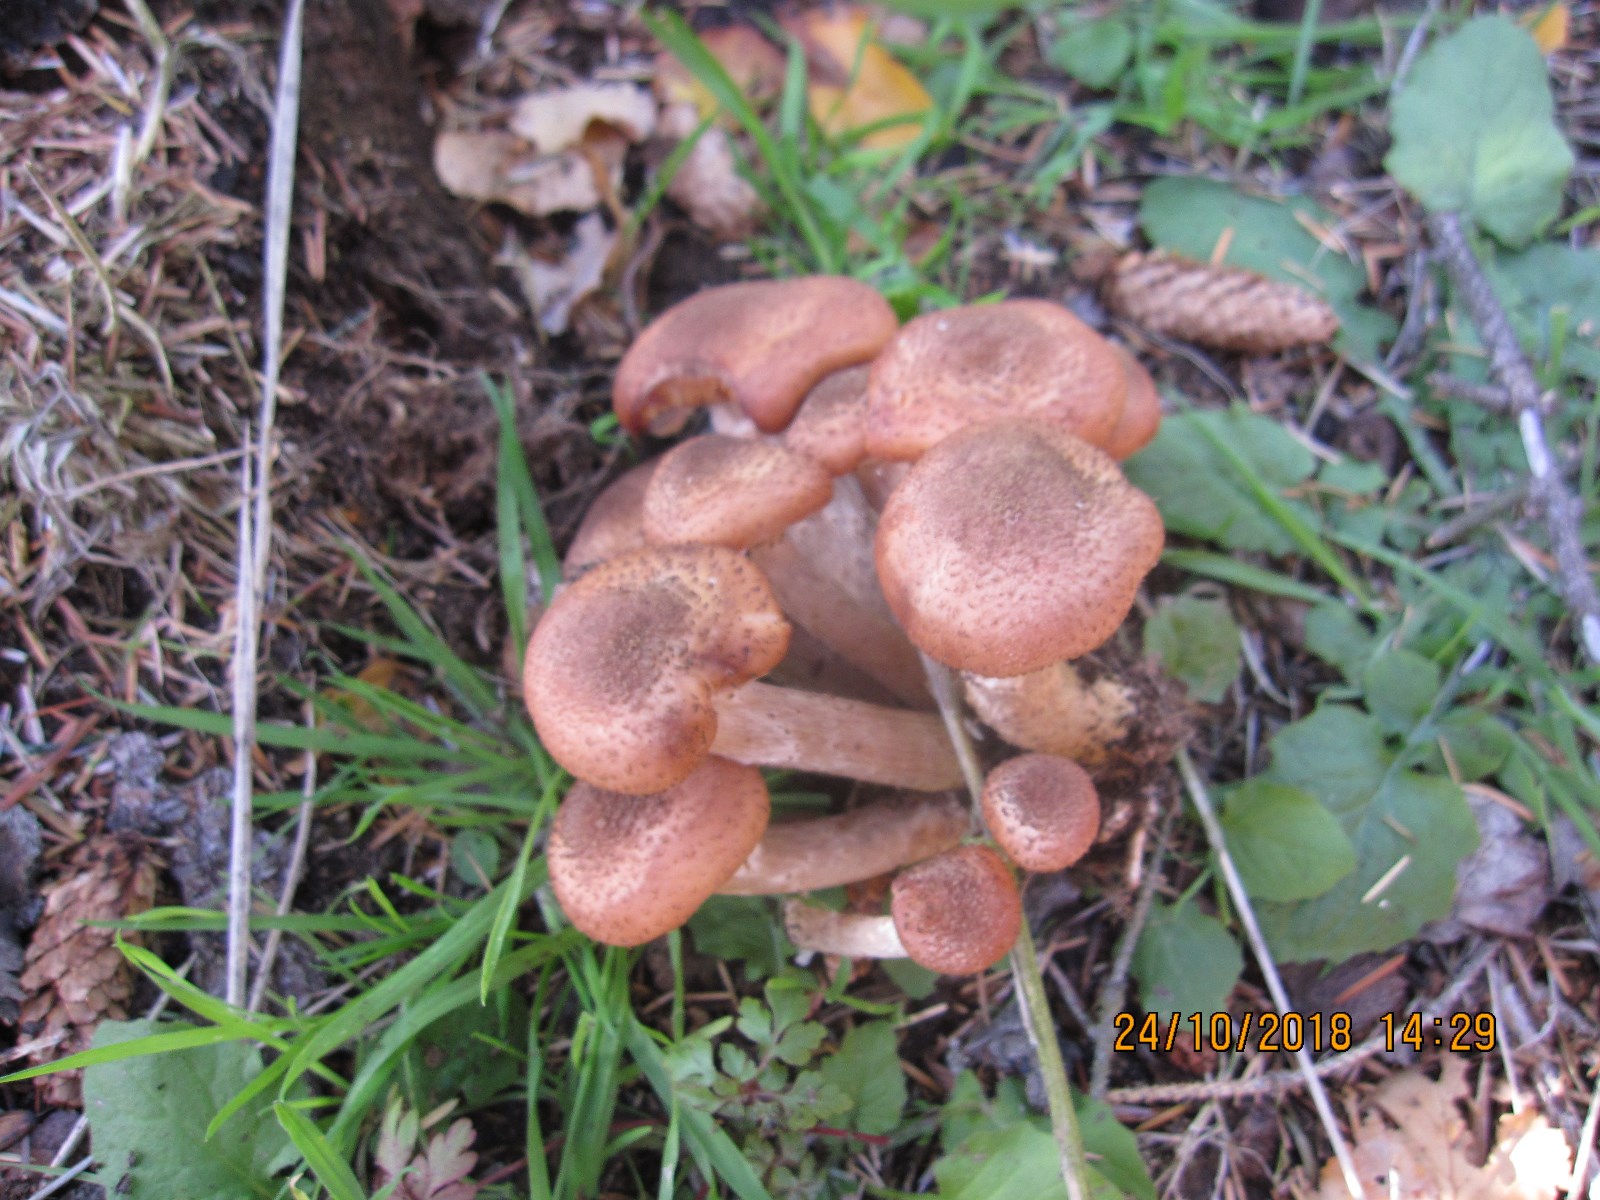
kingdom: Fungi
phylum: Basidiomycota
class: Agaricomycetes
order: Agaricales
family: Physalacriaceae
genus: Armillaria
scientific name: Armillaria ostoyae
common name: mørk honningsvamp
